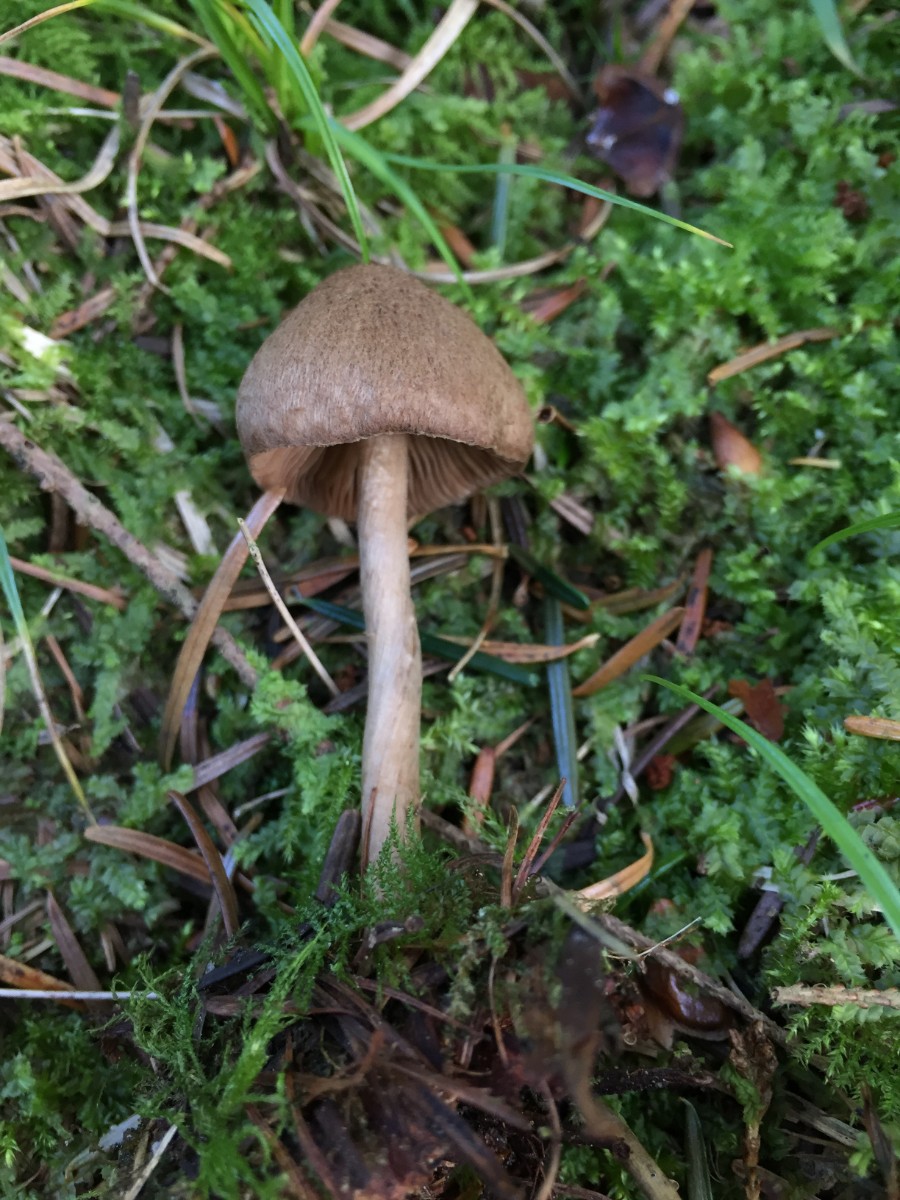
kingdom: Fungi
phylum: Basidiomycota
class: Agaricomycetes
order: Agaricales
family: Inocybaceae
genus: Inocybe
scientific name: Inocybe subcarpta
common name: plantage-trævlhat
